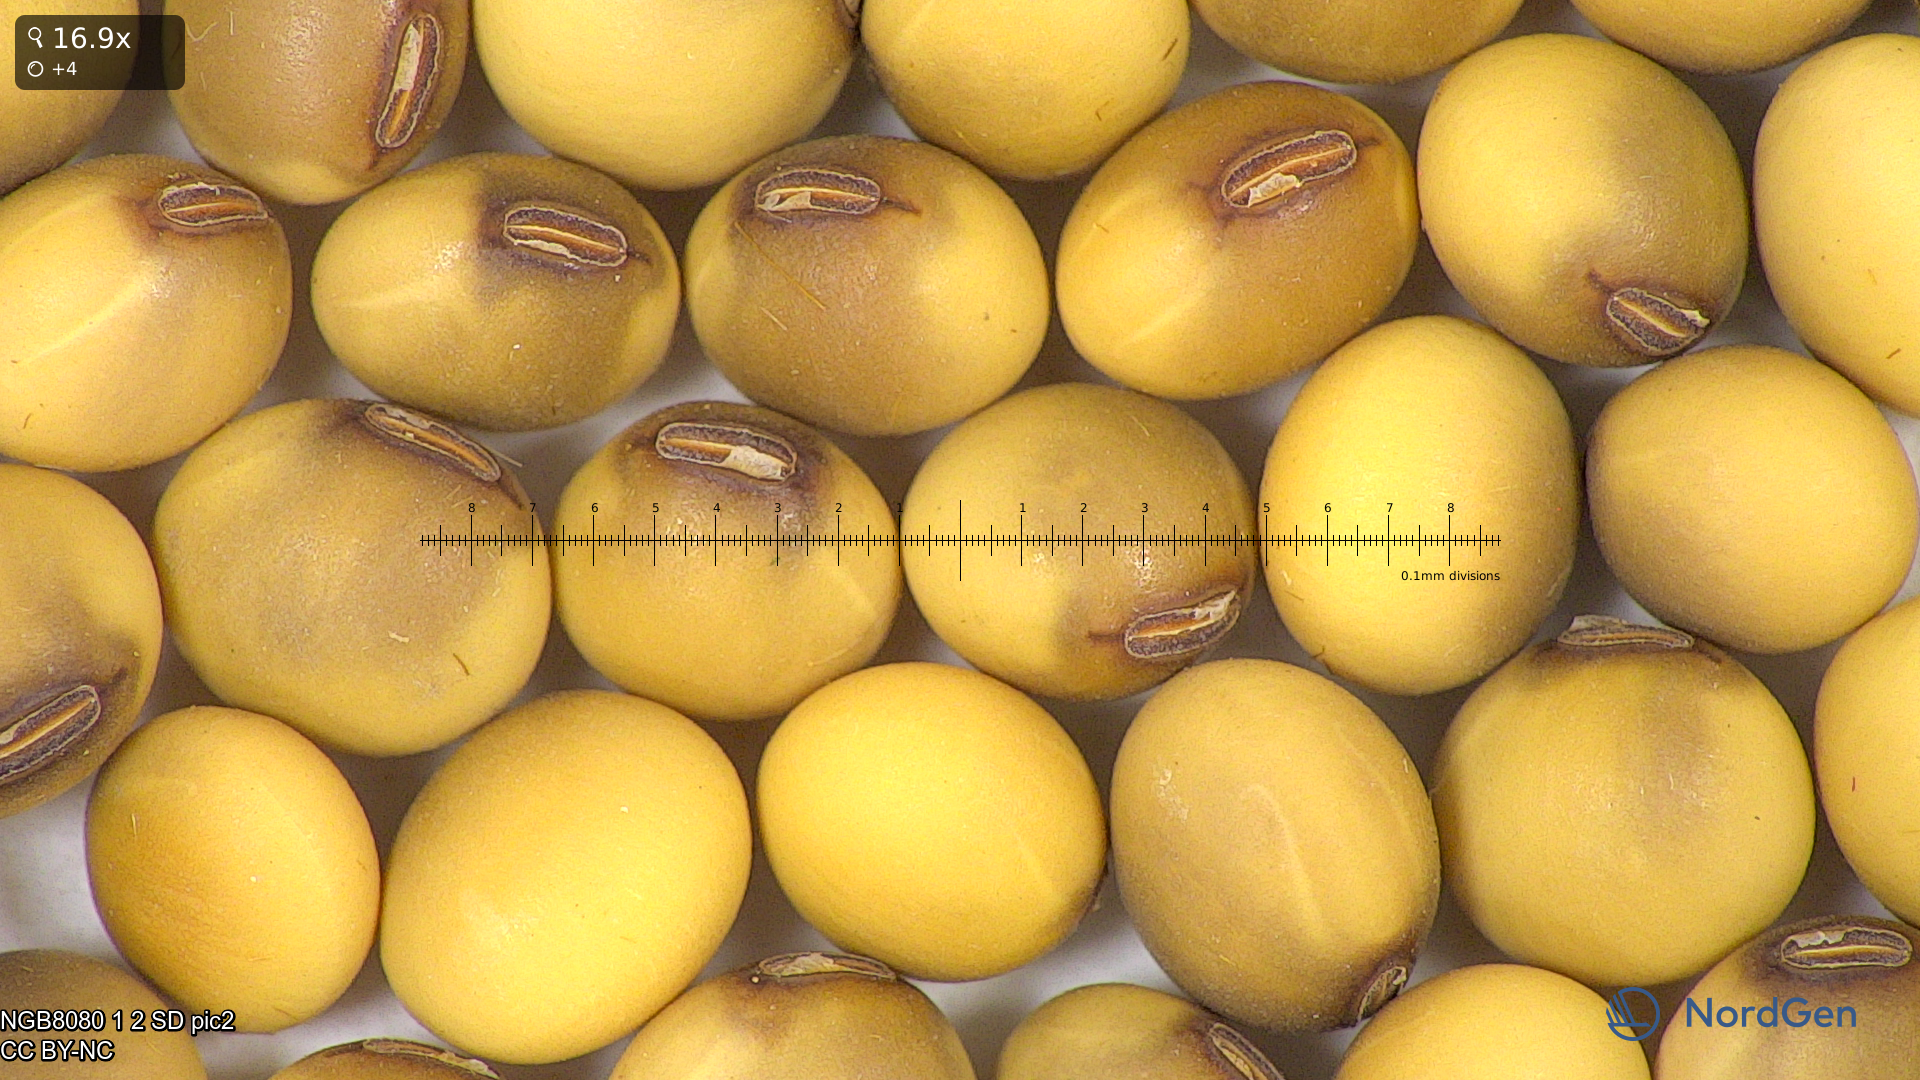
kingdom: Plantae
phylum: Tracheophyta
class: Magnoliopsida
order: Fabales
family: Fabaceae
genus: Glycine
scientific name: Glycine max
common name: Soya-bean
